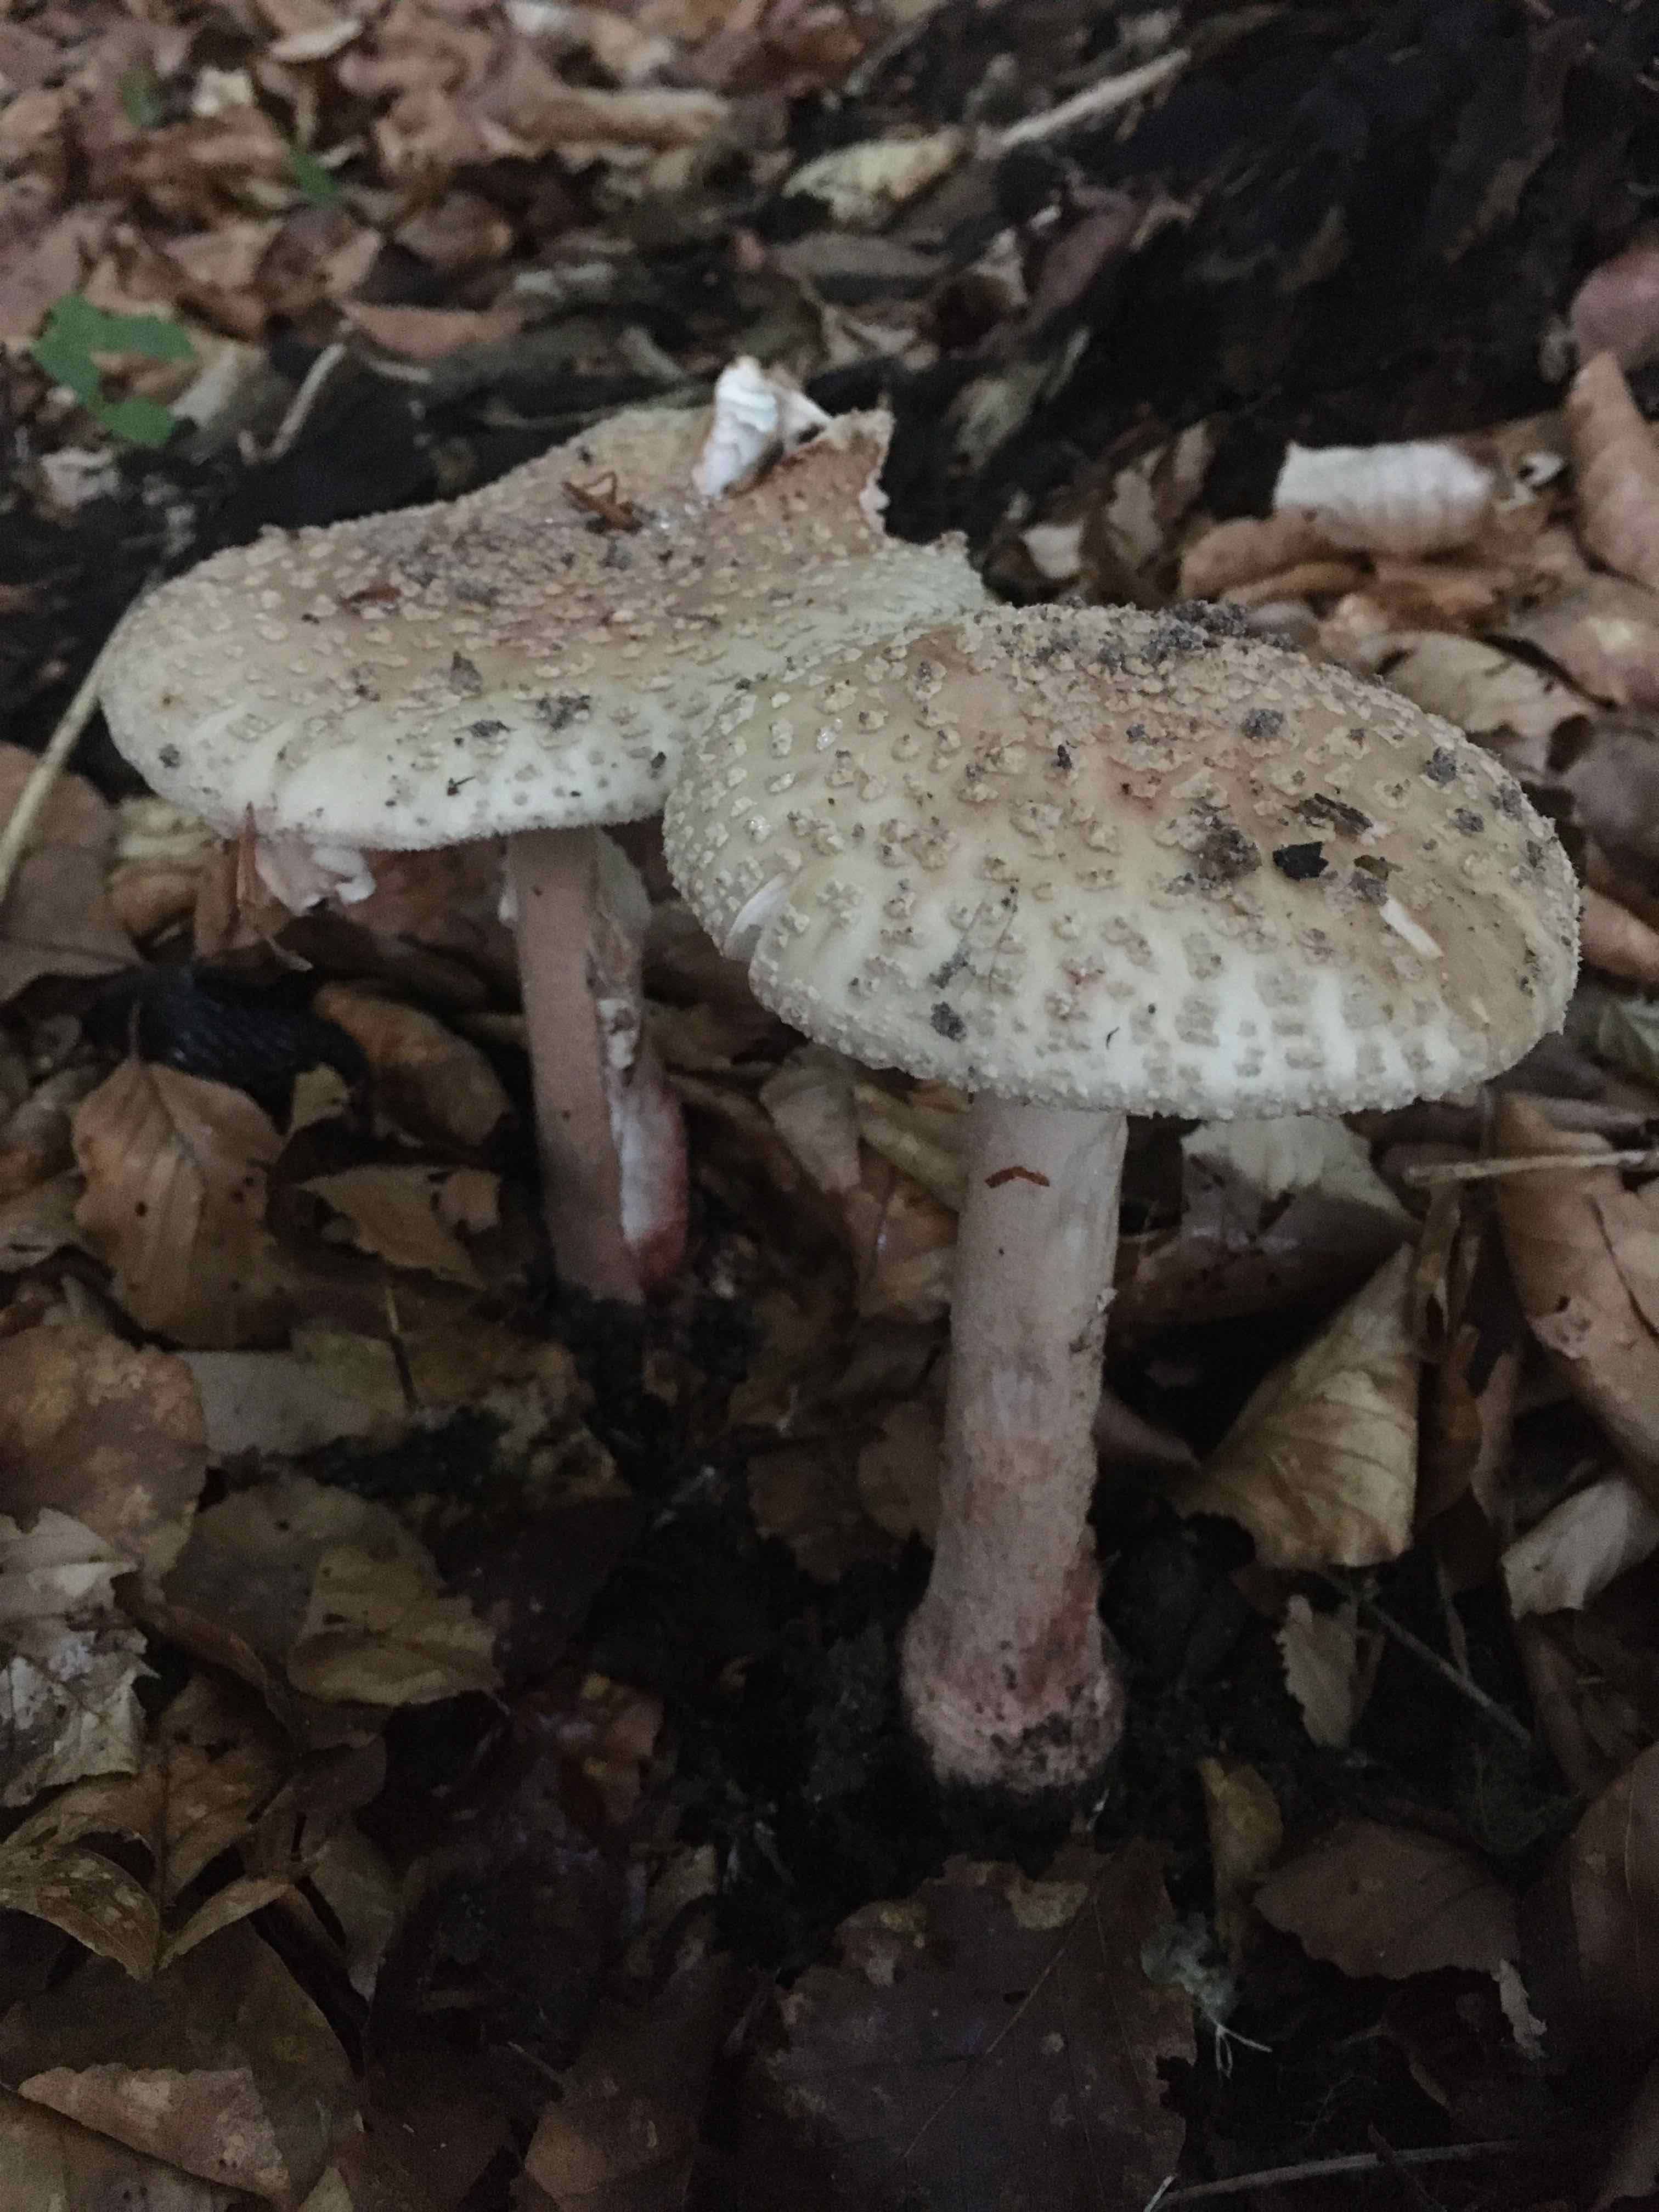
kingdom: Fungi
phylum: Basidiomycota
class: Agaricomycetes
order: Agaricales
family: Amanitaceae
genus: Amanita
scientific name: Amanita rubescens
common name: rødmende fluesvamp
